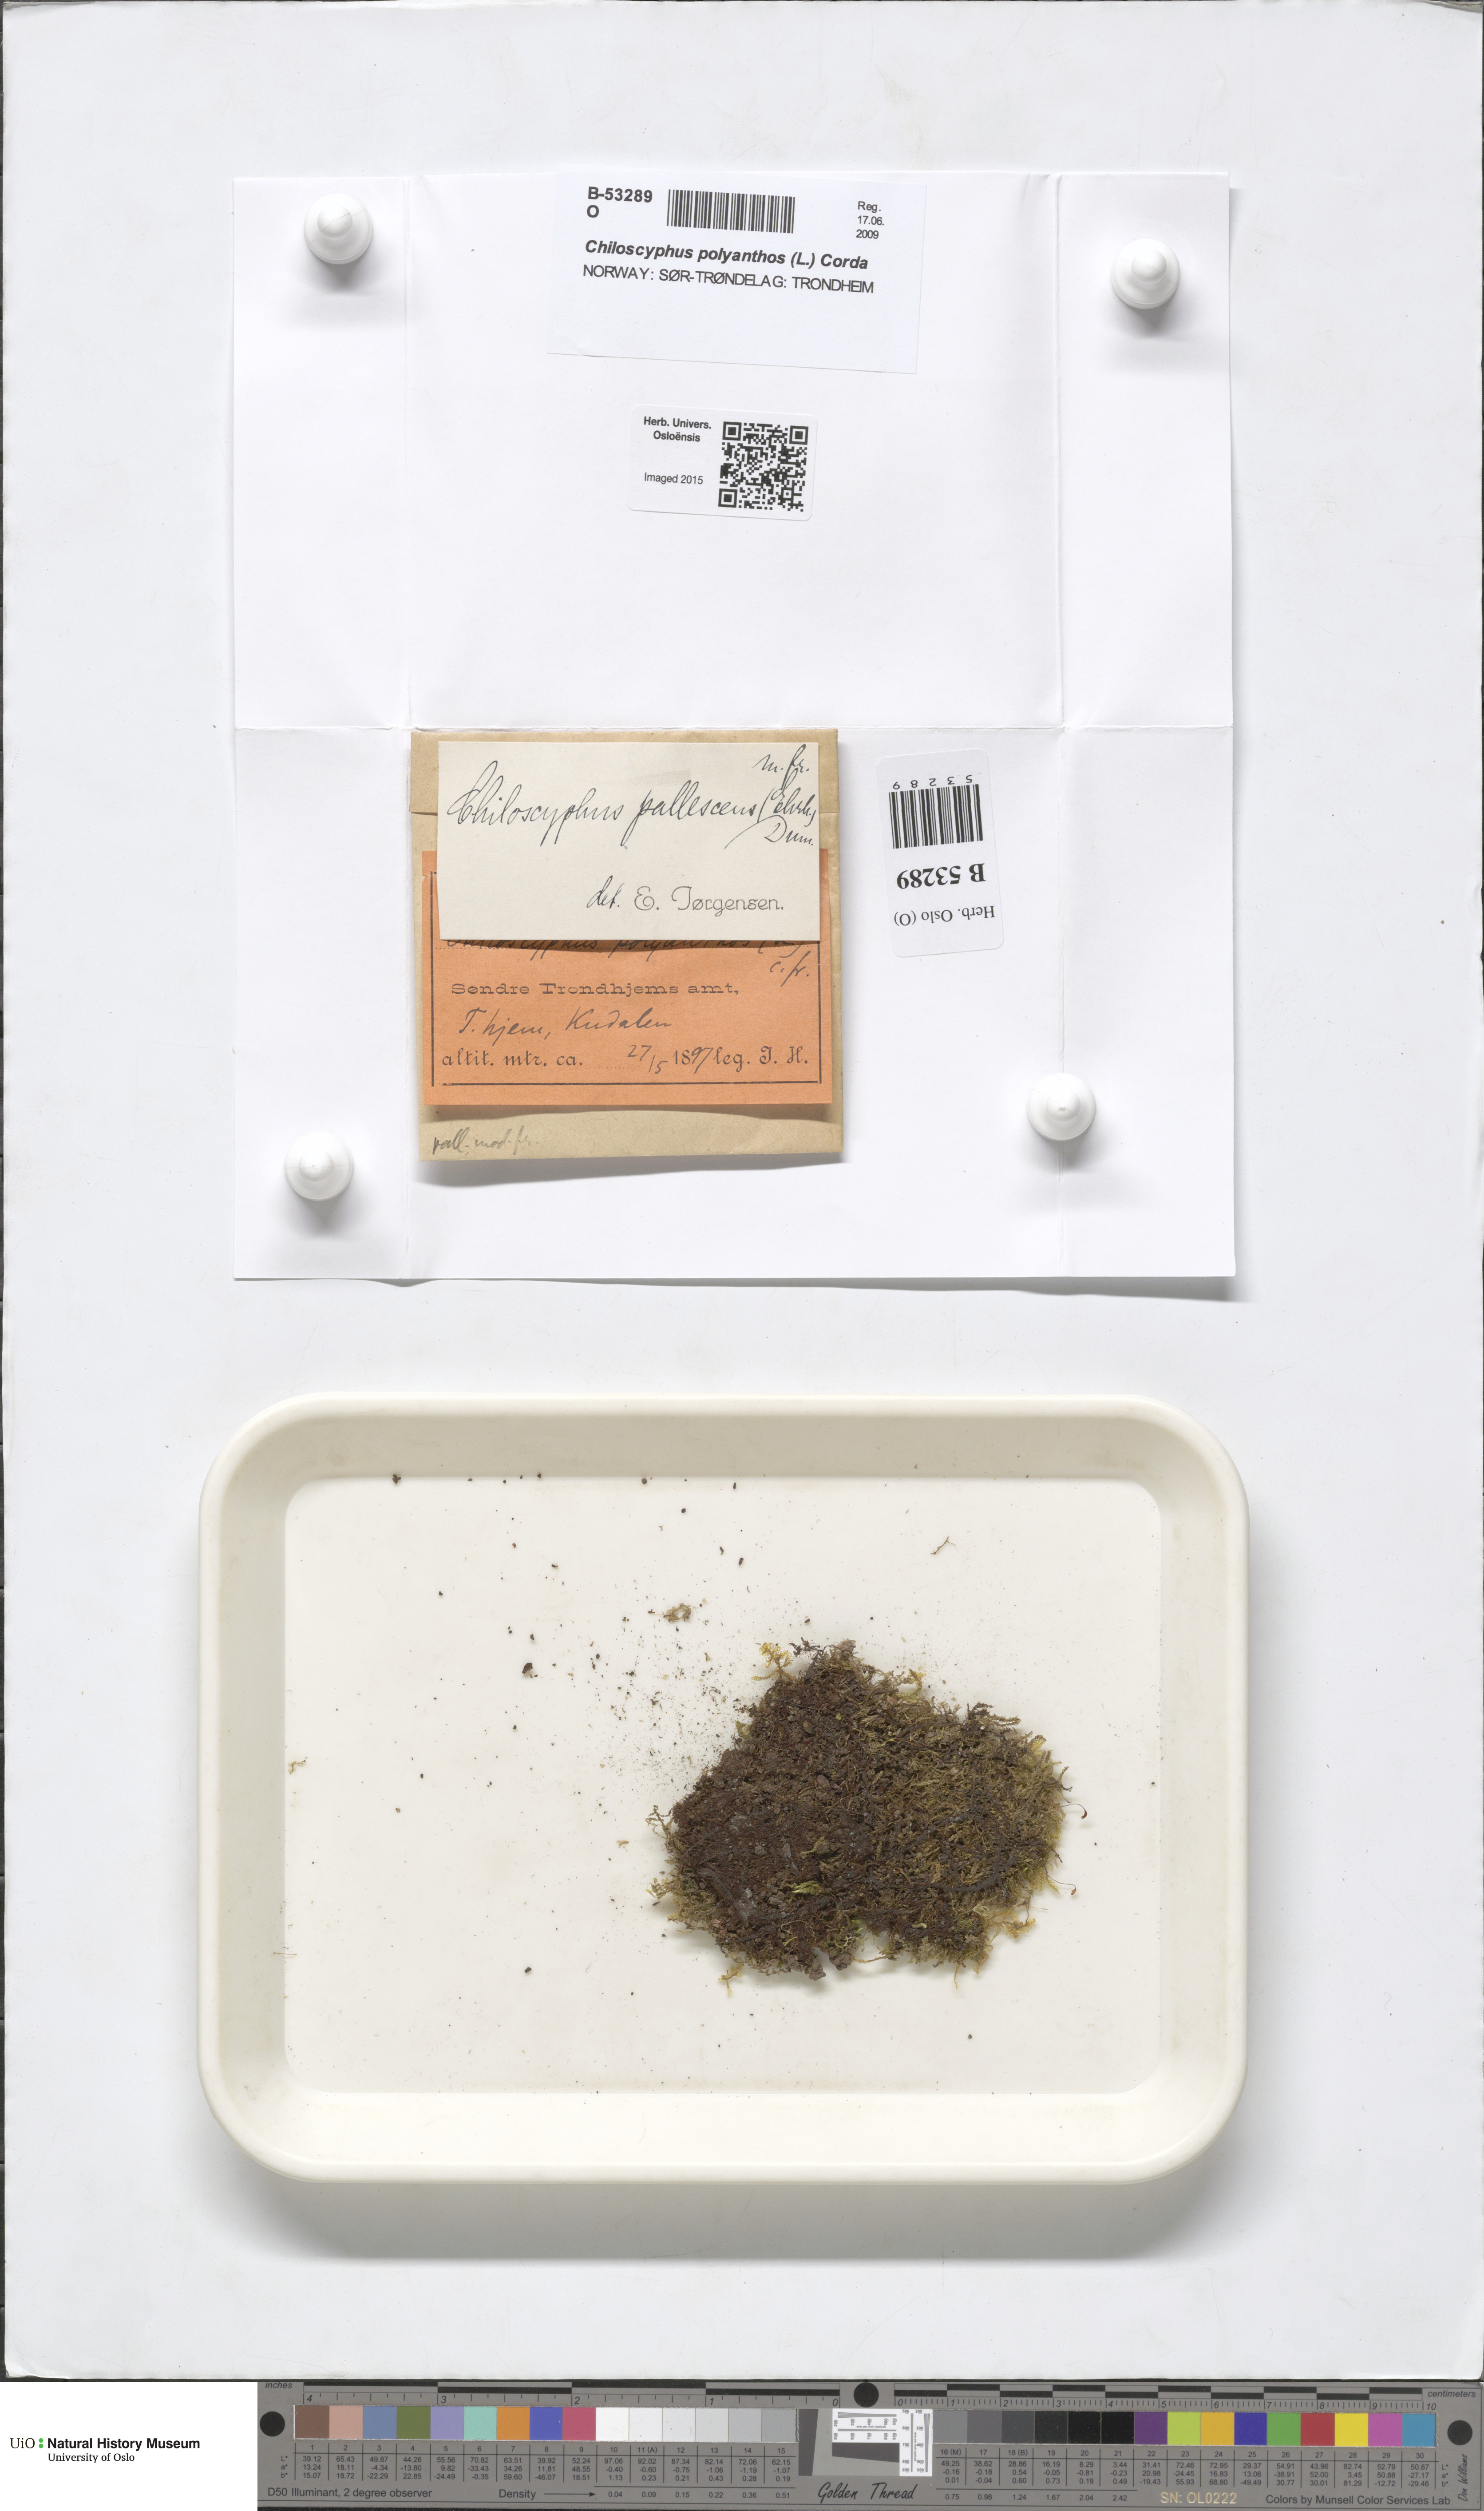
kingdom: Plantae
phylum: Marchantiophyta
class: Jungermanniopsida
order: Jungermanniales
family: Lophocoleaceae
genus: Chiloscyphus
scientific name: Chiloscyphus pallescens
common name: St winifrid's other moss
